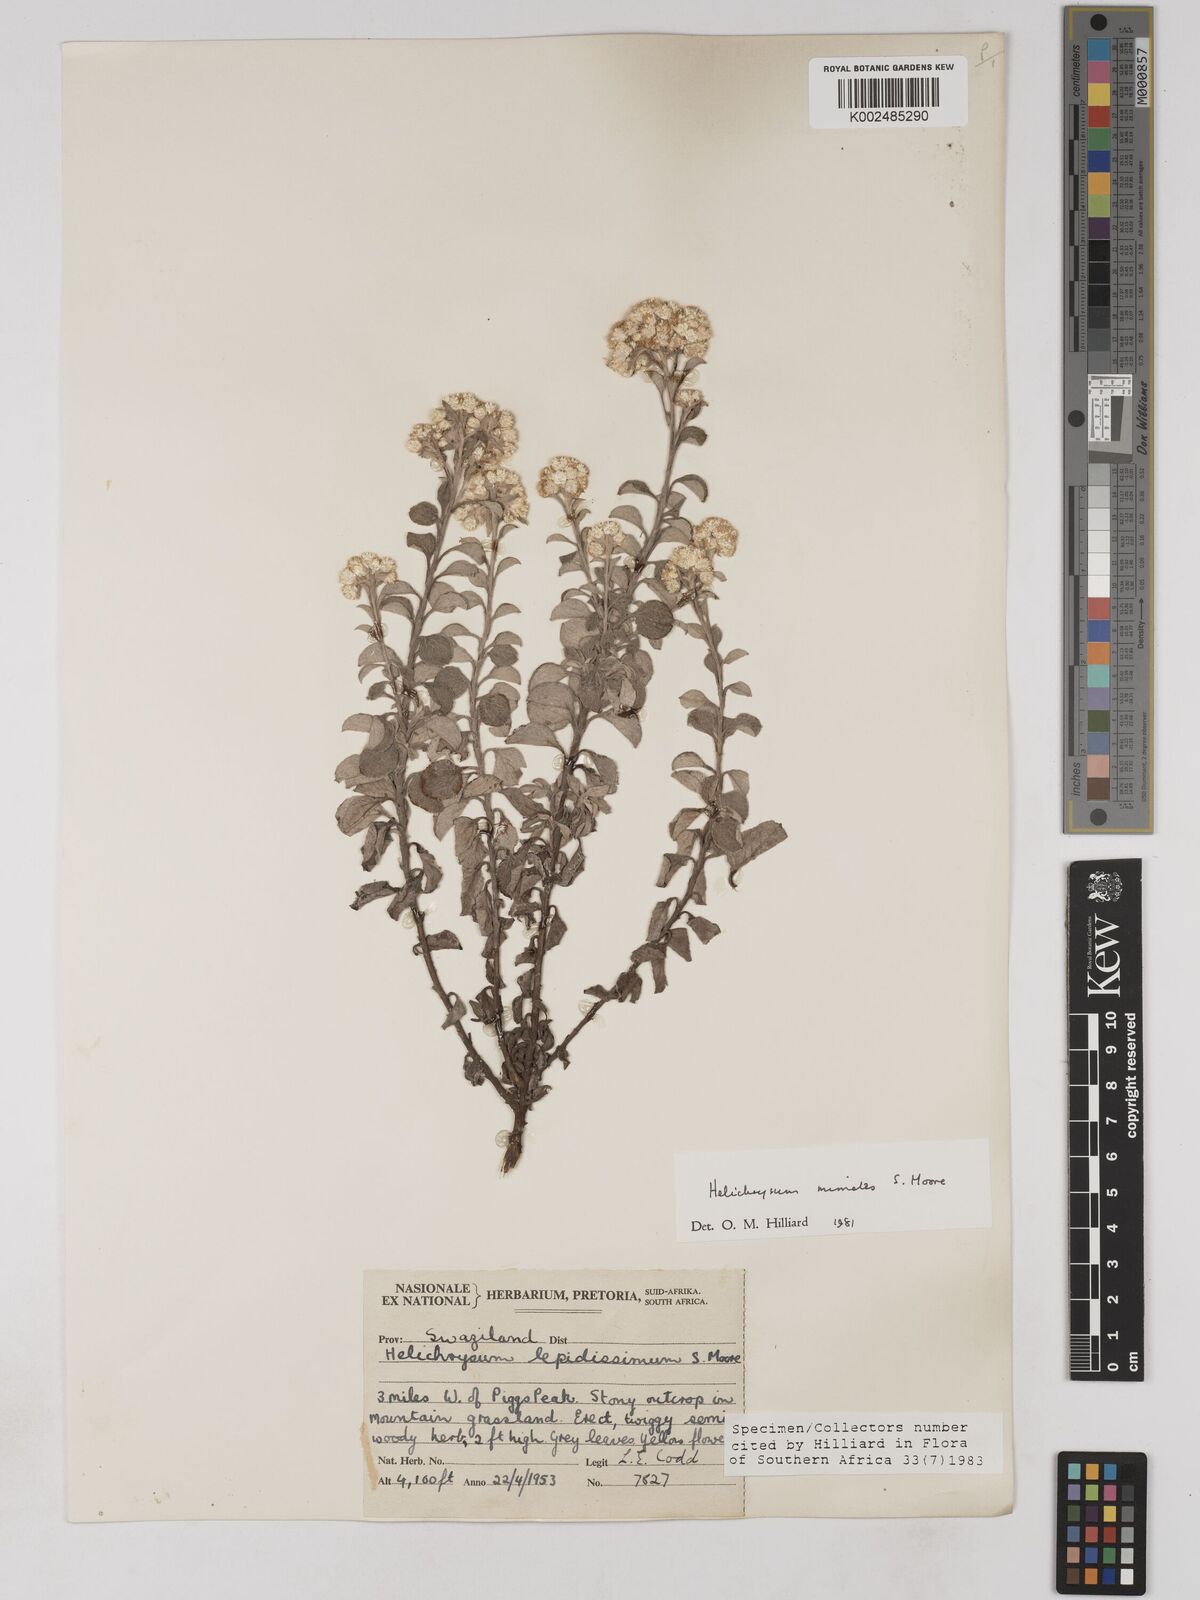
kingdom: Plantae
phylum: Tracheophyta
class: Magnoliopsida
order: Asterales
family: Asteraceae
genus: Helichrysum
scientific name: Helichrysum mimetes
